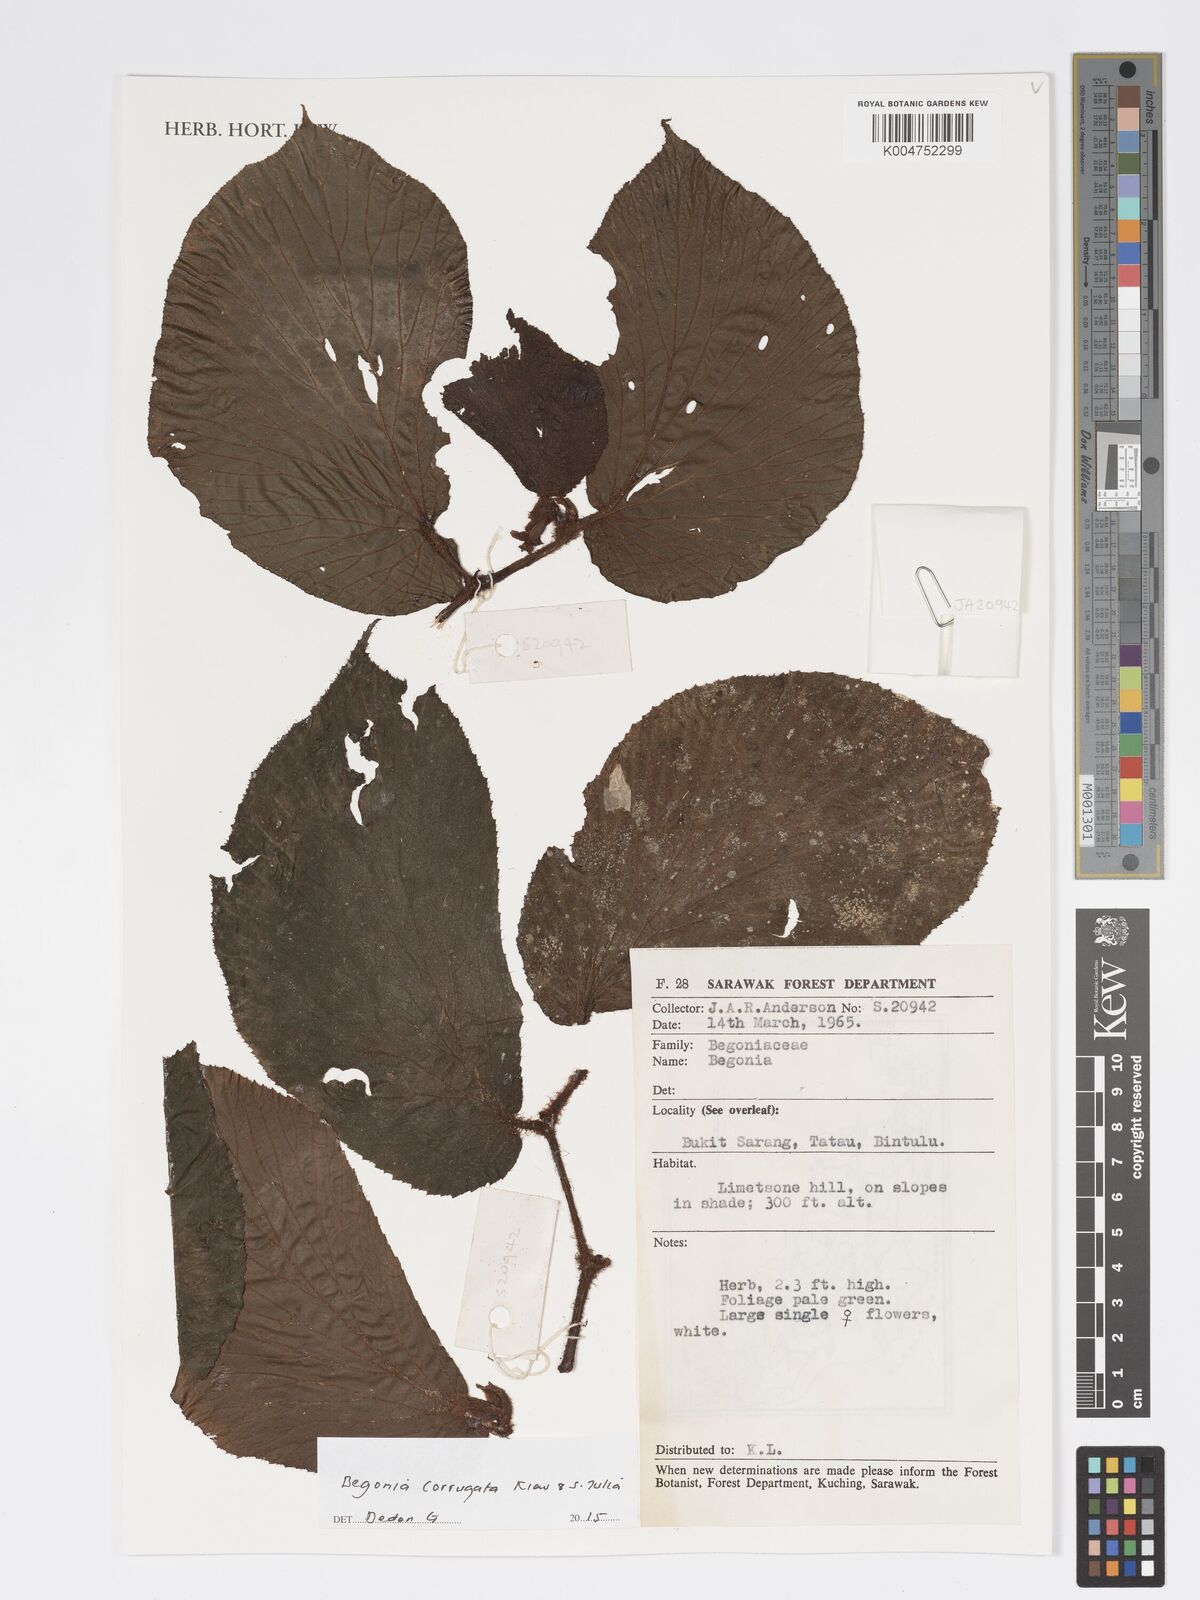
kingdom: Plantae
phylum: Tracheophyta
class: Magnoliopsida
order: Cucurbitales
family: Begoniaceae
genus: Begonia
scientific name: Begonia corrugata
